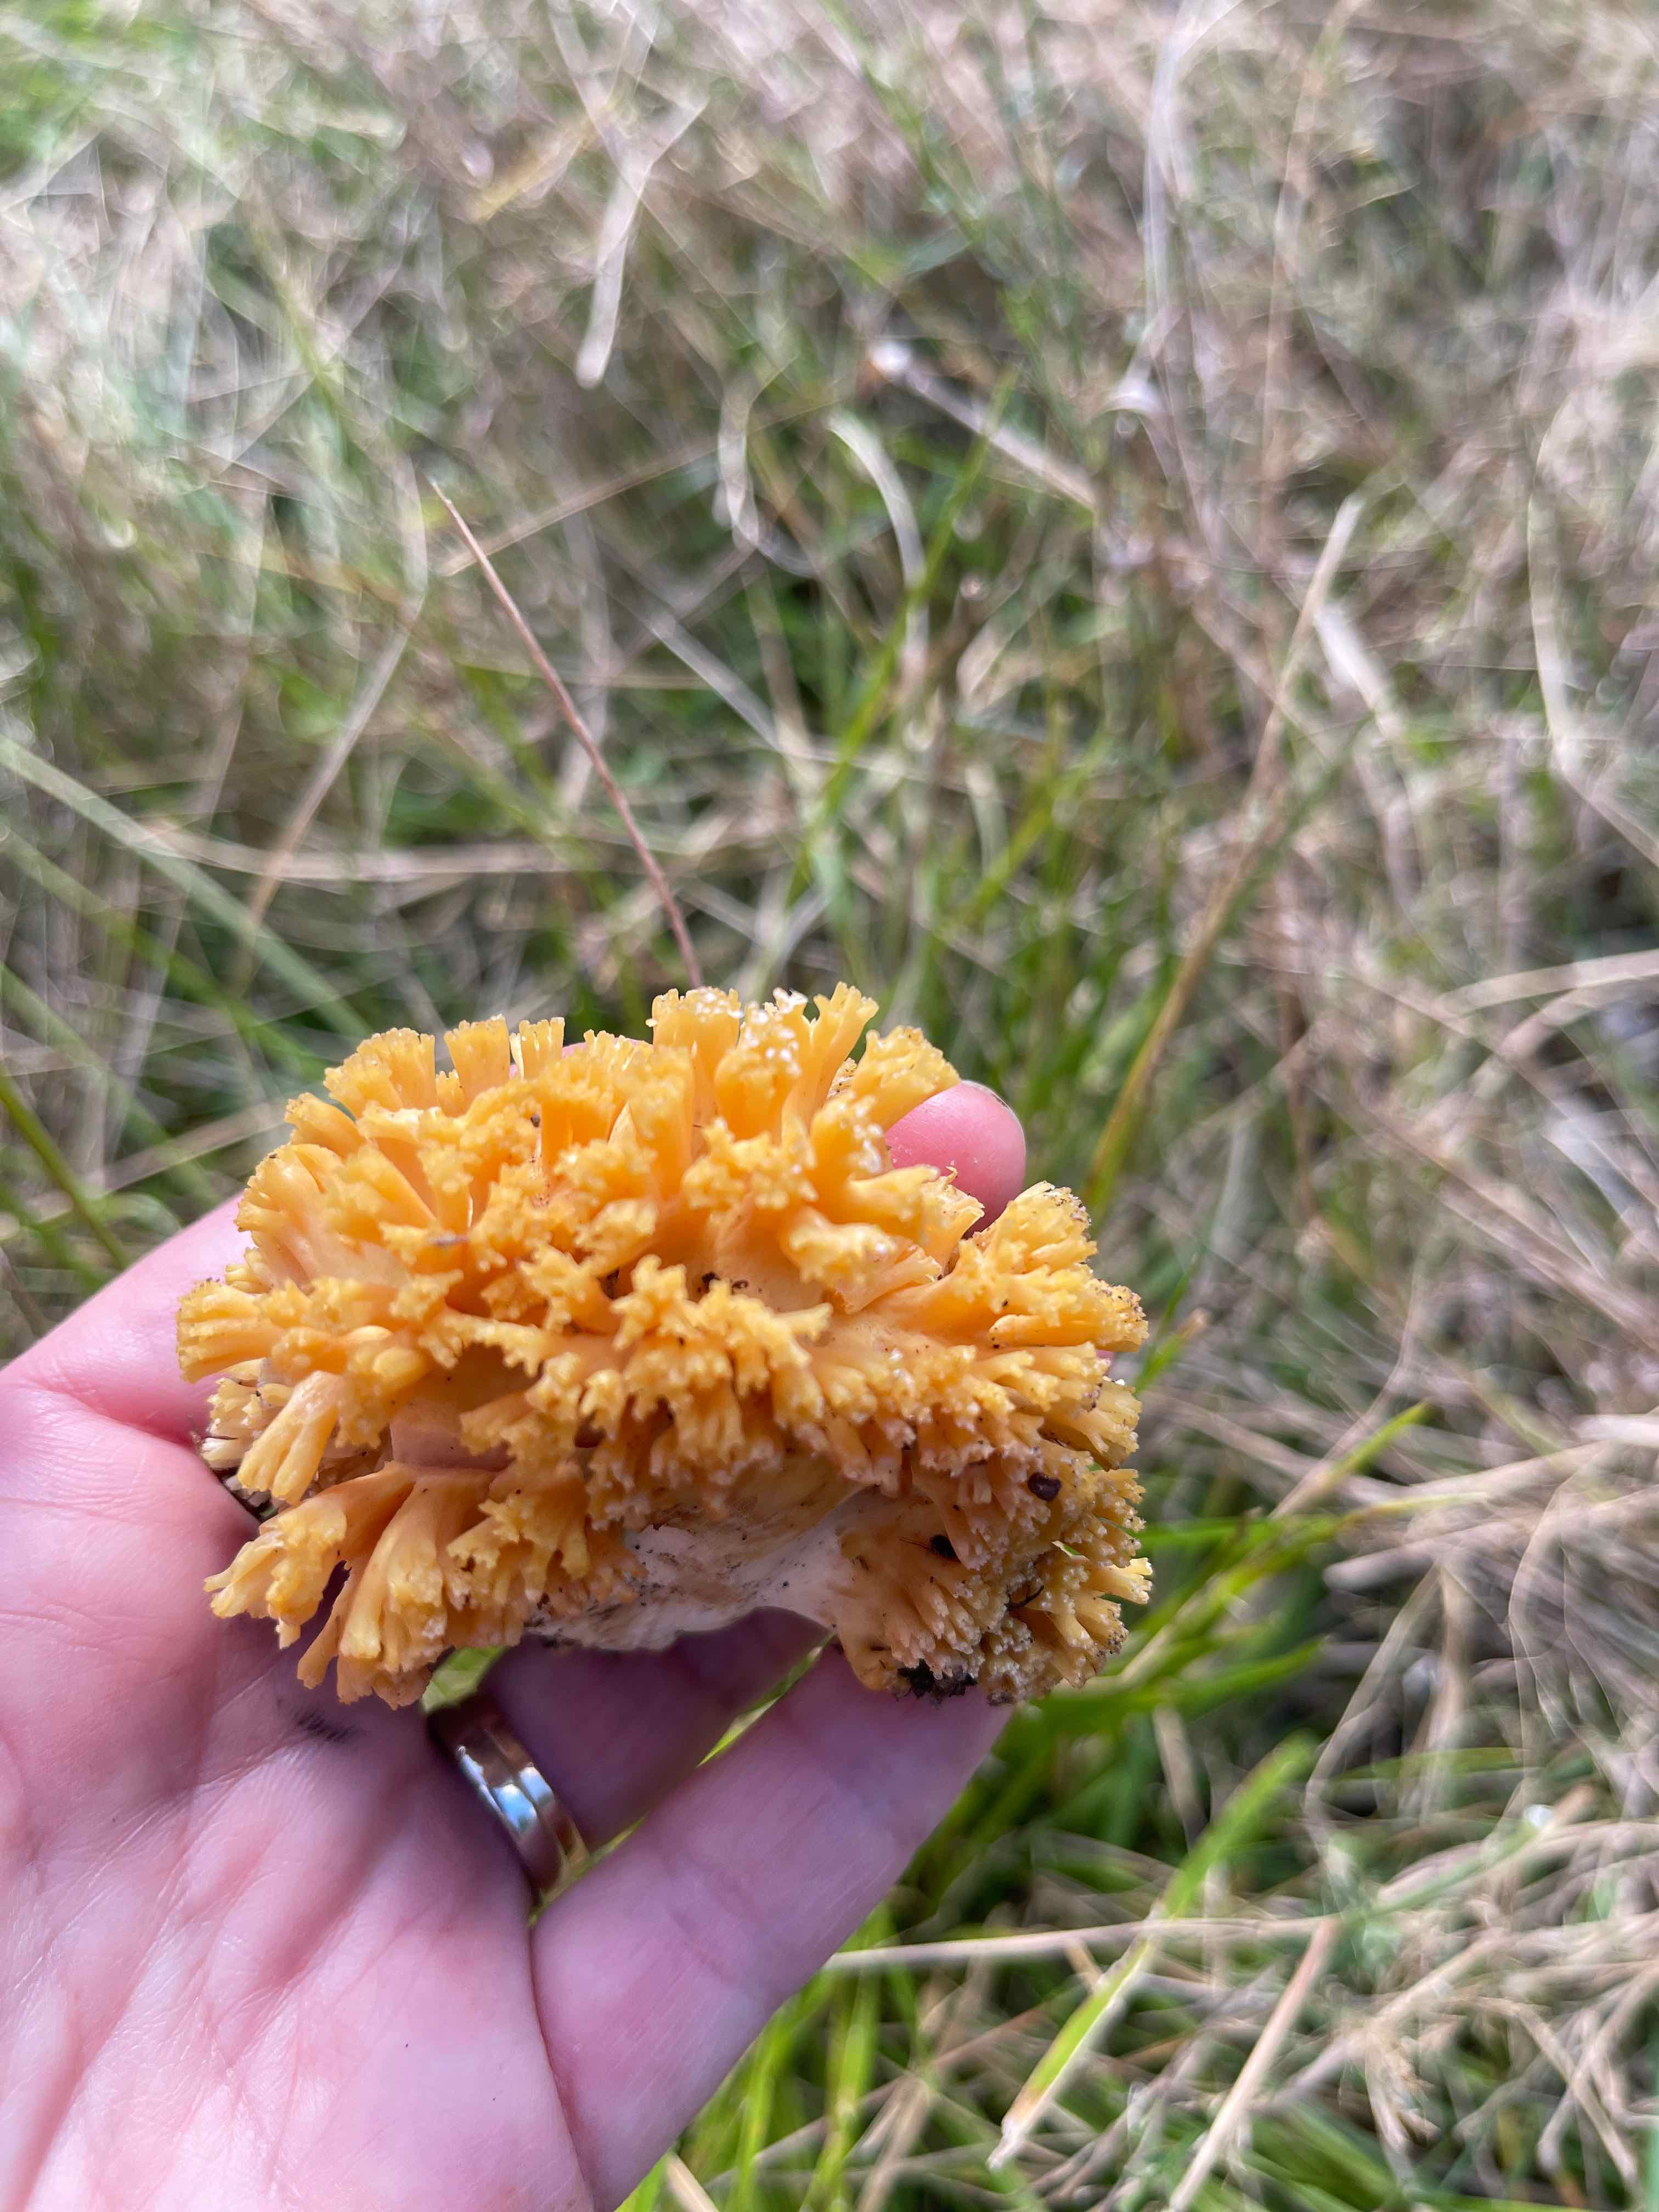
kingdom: Fungi
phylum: Basidiomycota
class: Agaricomycetes
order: Gomphales
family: Gomphaceae
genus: Ramaria
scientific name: Ramaria
